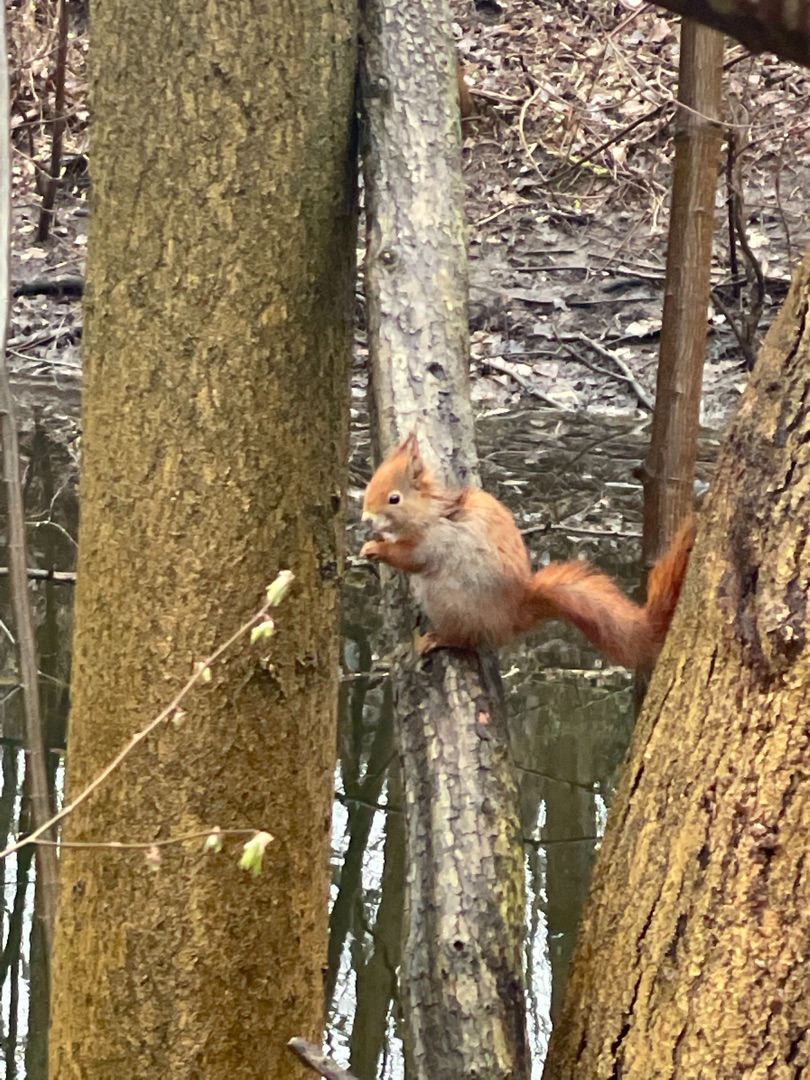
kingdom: Animalia
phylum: Chordata
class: Mammalia
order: Rodentia
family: Sciuridae
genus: Sciurus
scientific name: Sciurus vulgaris
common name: Egern
